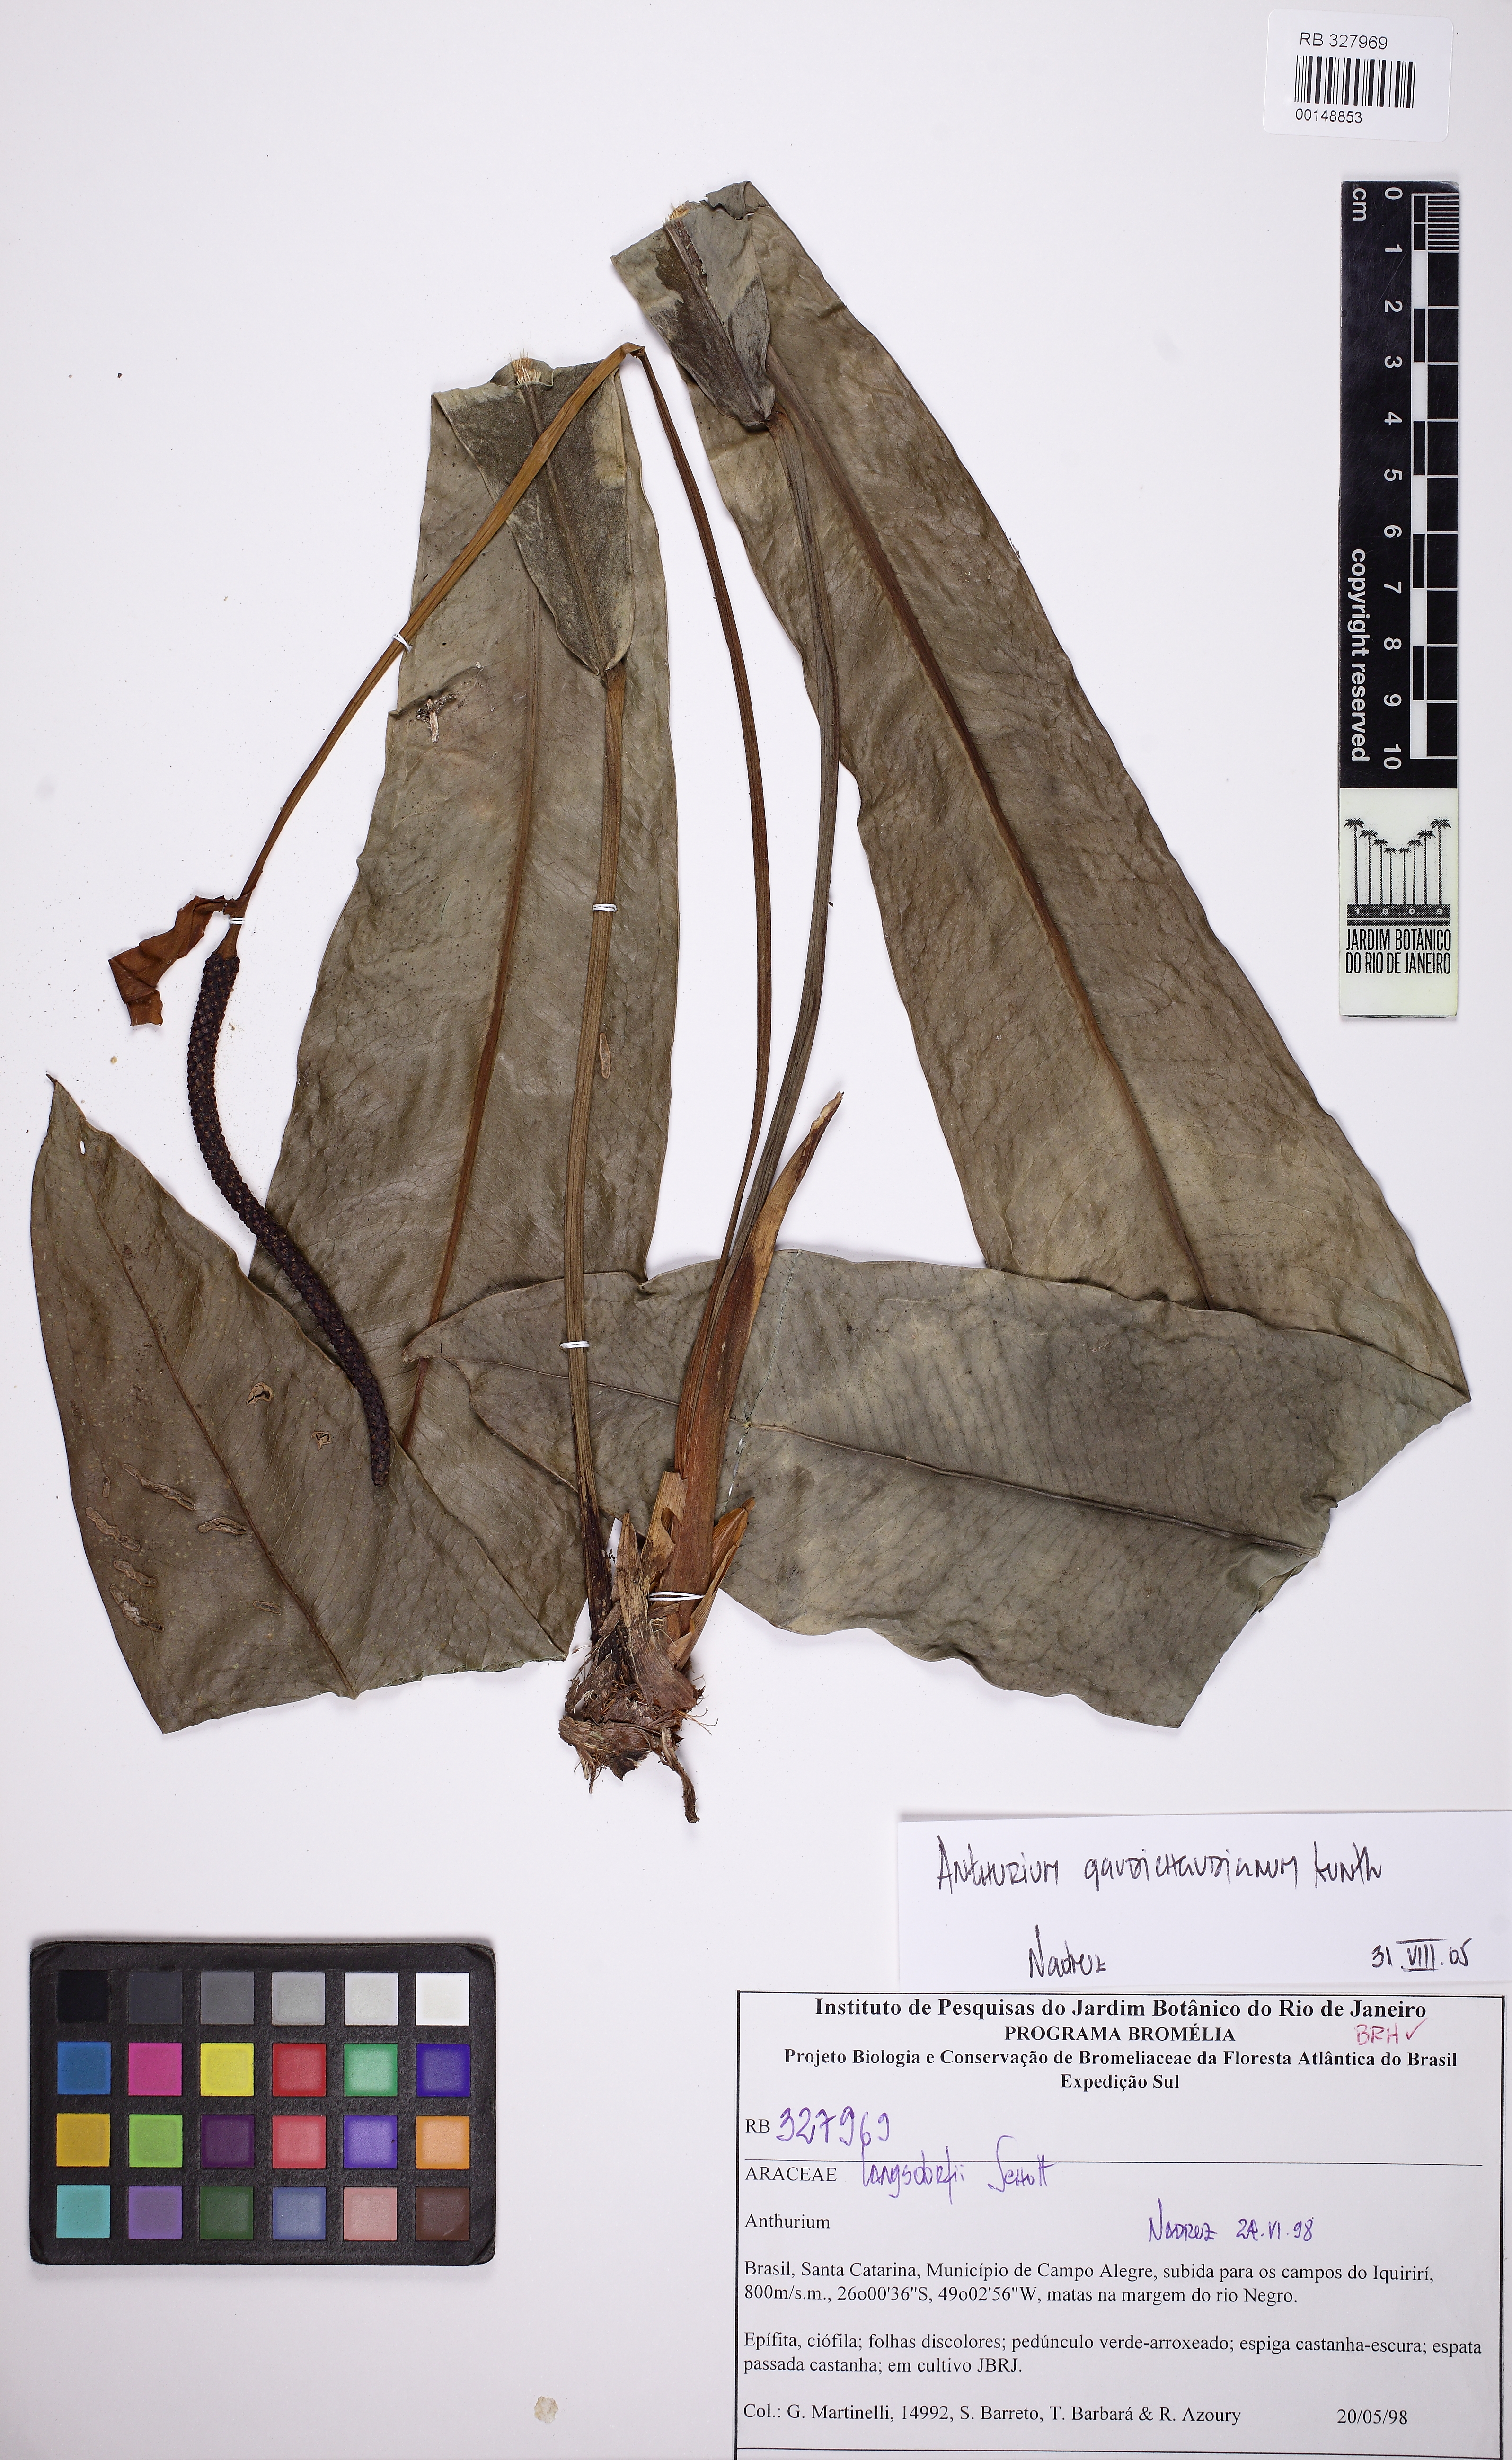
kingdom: Plantae
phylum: Tracheophyta
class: Liliopsida
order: Alismatales
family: Araceae
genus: Anthurium
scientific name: Anthurium gaudichaudianum
